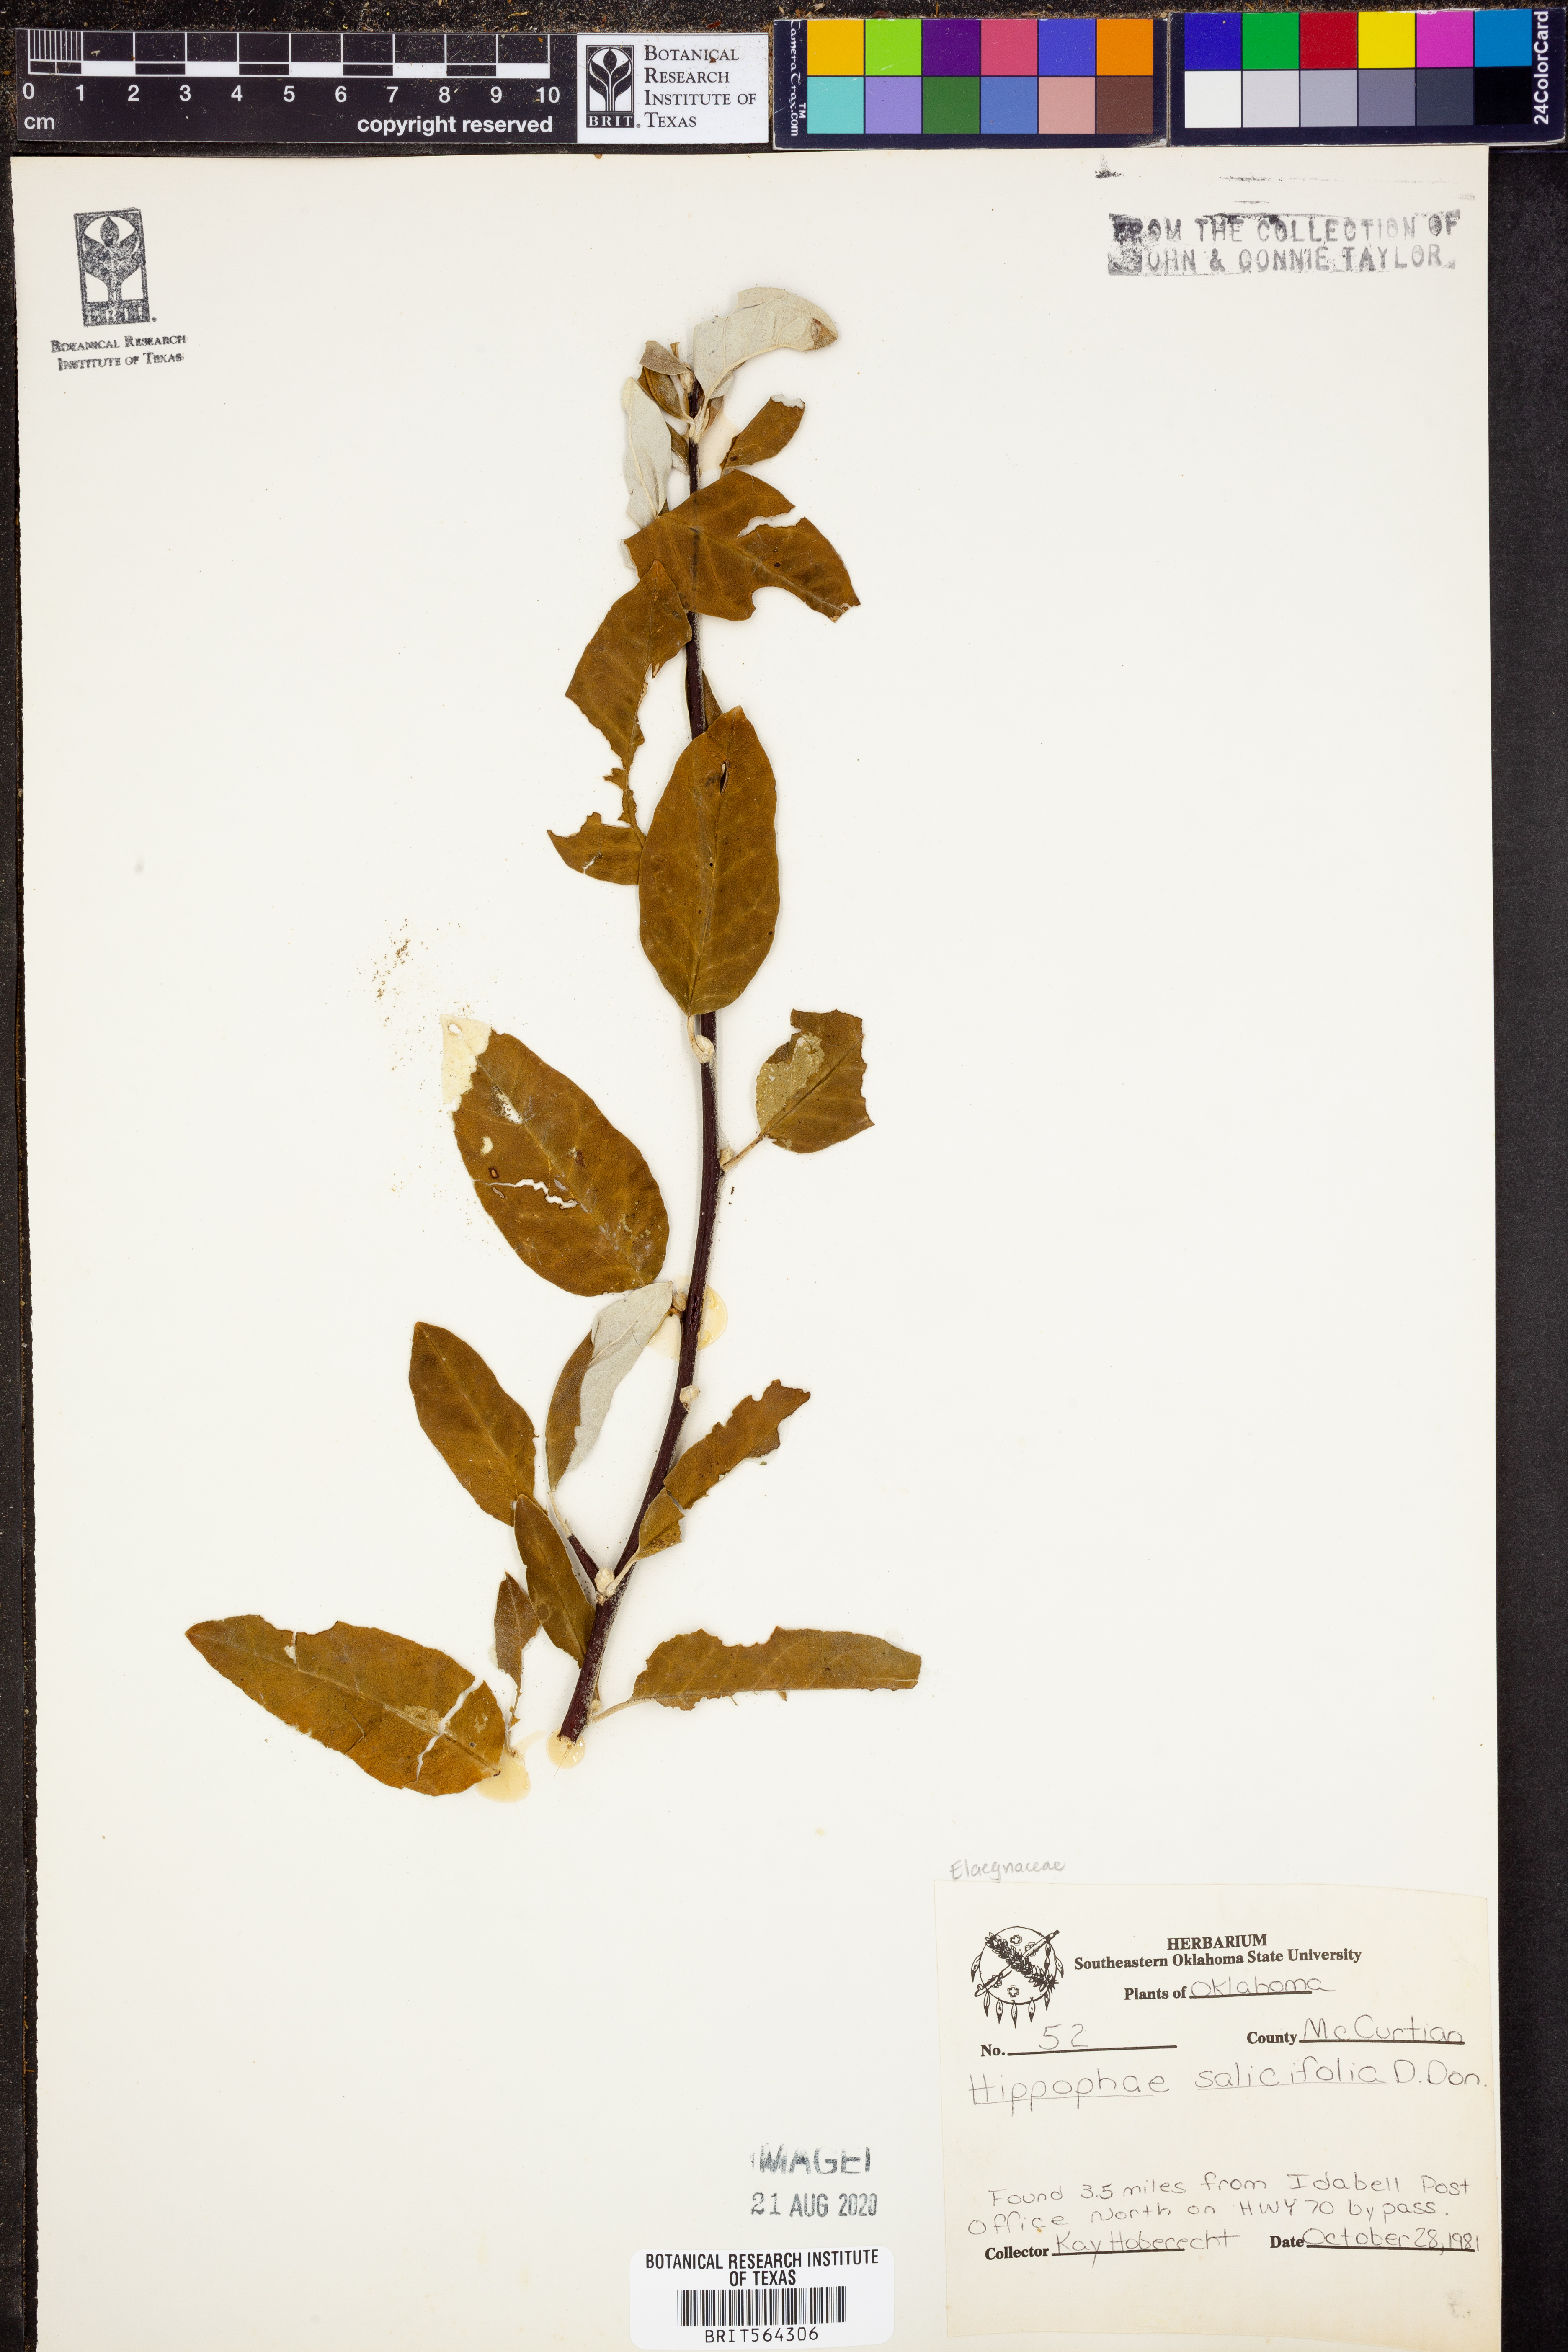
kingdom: Plantae
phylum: Tracheophyta
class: Magnoliopsida
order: Rosales
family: Elaeagnaceae
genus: Hippophae
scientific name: Hippophae salicifolia
